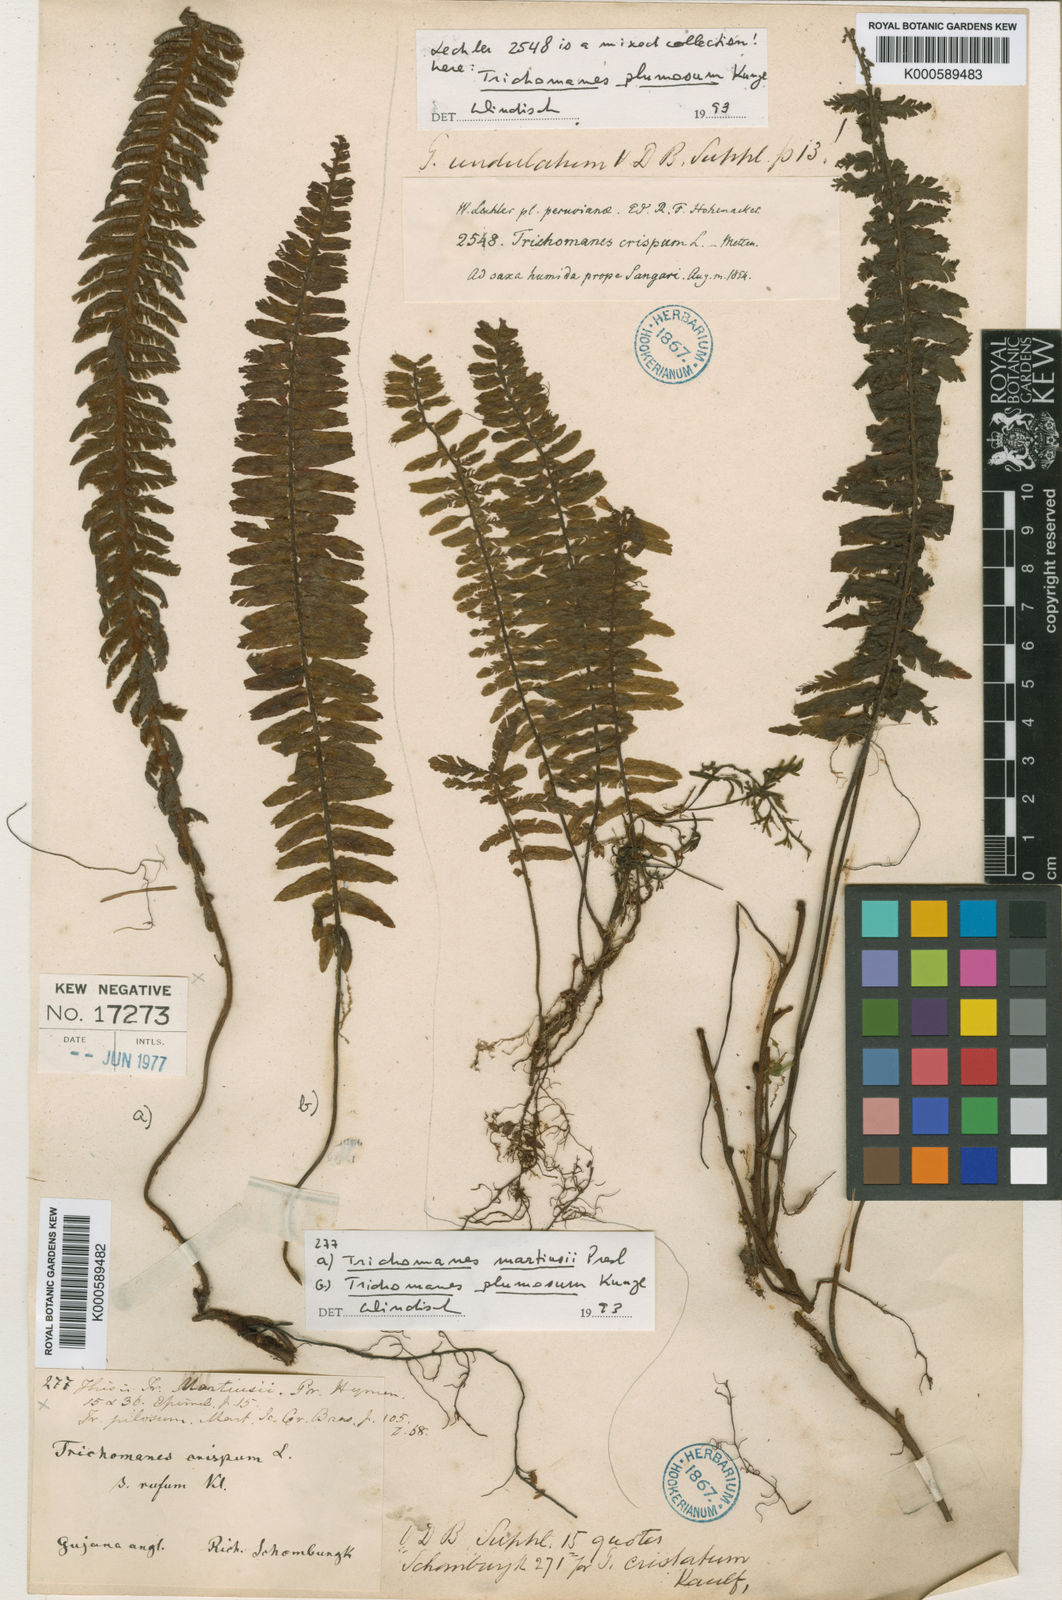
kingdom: Plantae
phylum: Tracheophyta
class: Polypodiopsida
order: Hymenophyllales
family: Hymenophyllaceae
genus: Trichomanes
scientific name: Trichomanes cristatum
